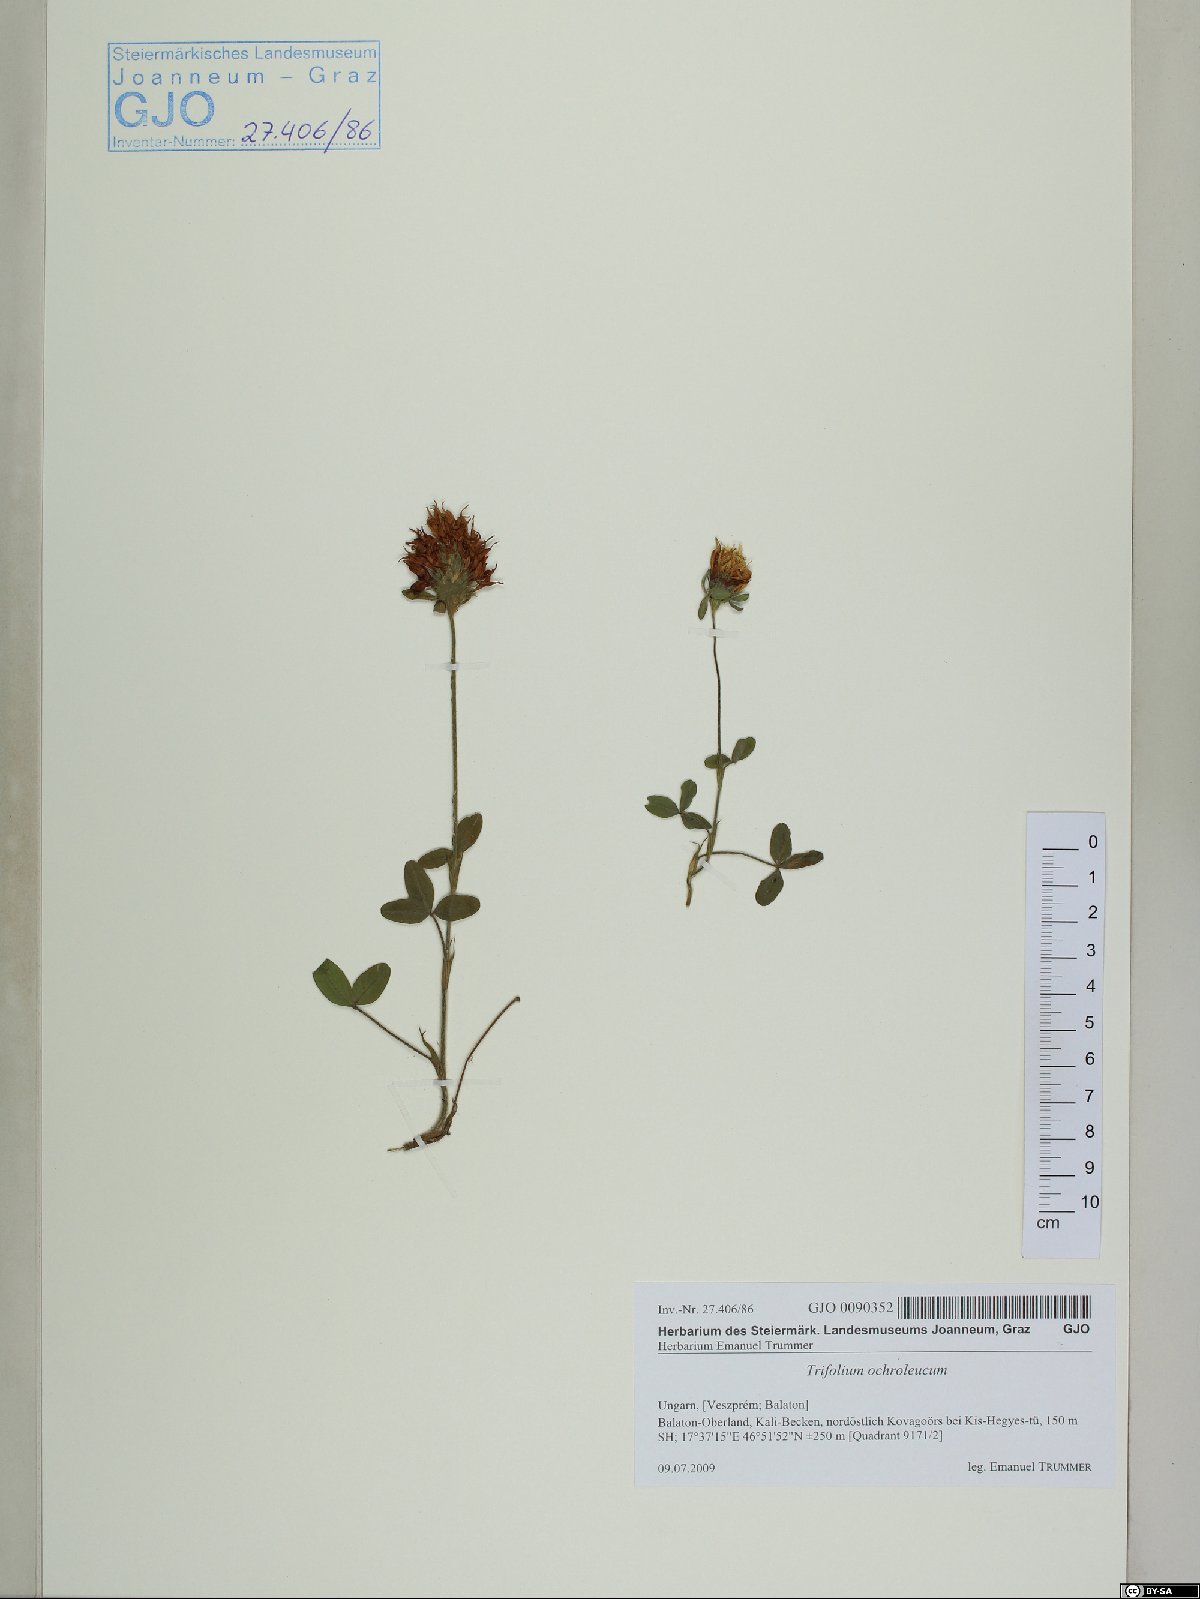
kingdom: Plantae
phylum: Tracheophyta
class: Magnoliopsida
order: Fabales
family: Fabaceae
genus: Trifolium
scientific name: Trifolium ochroleucon
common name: Sulphur clover
